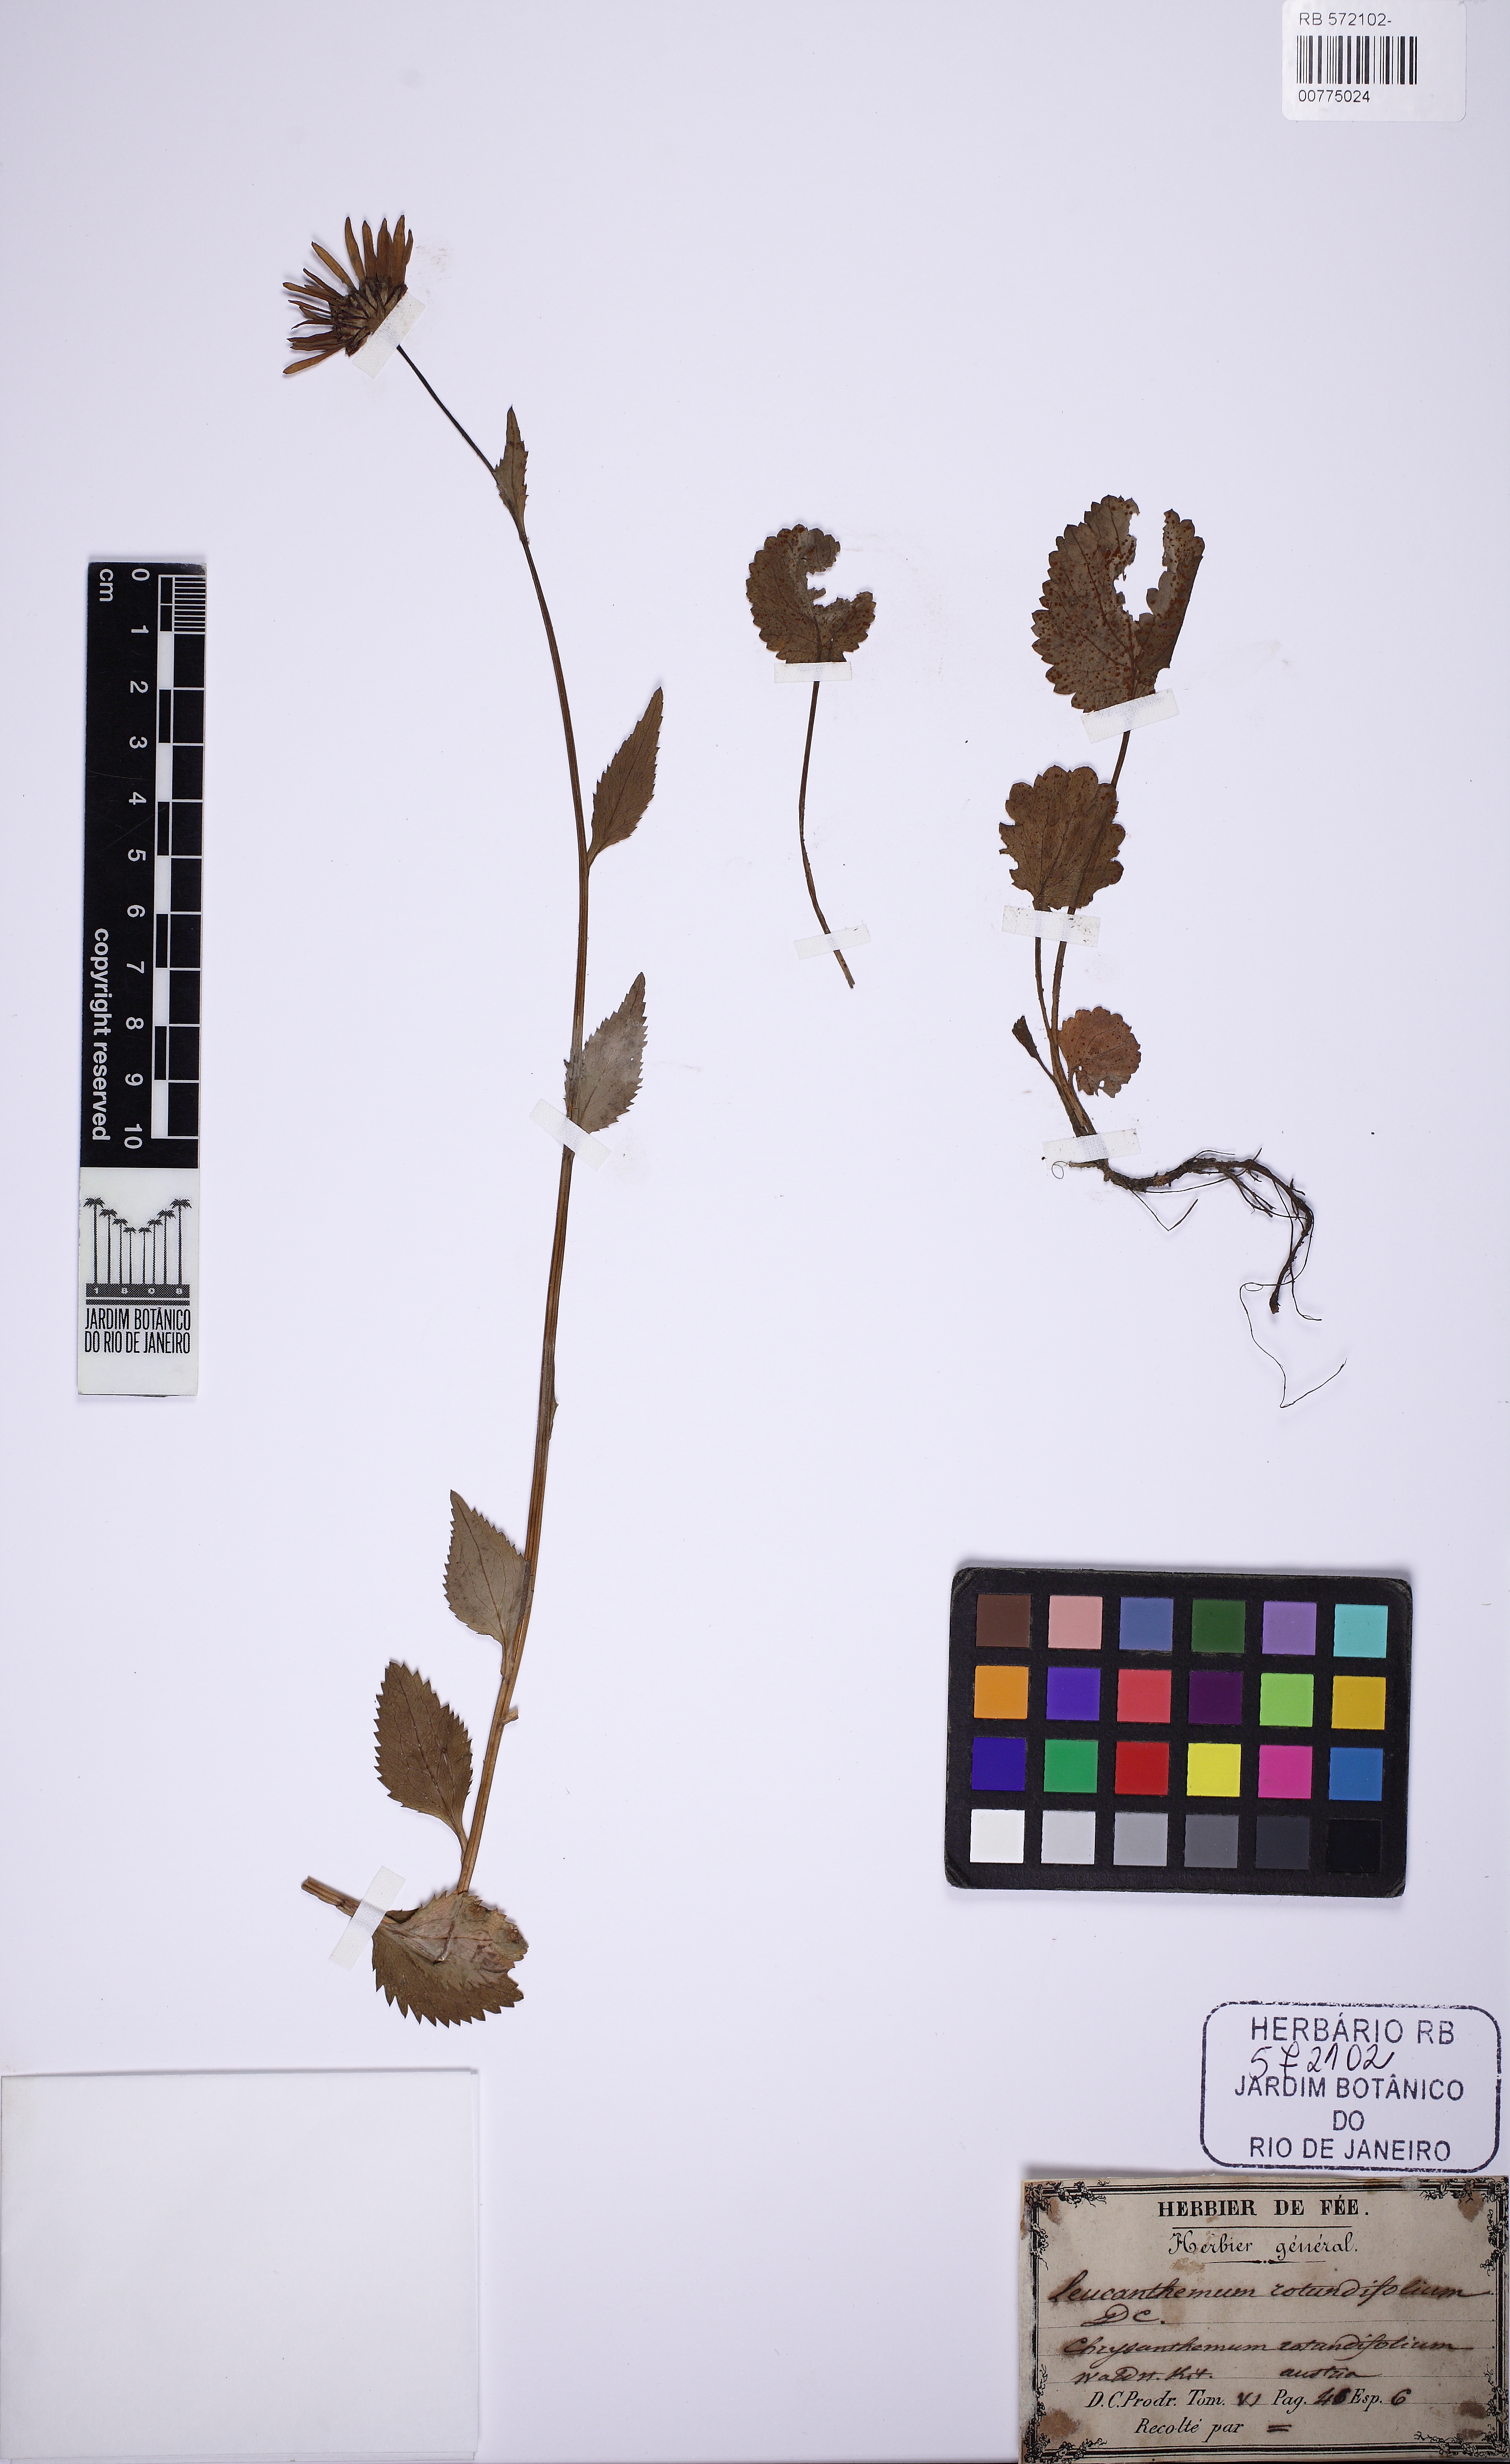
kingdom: Plantae
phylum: Tracheophyta
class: Magnoliopsida
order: Asterales
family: Asteraceae
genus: Leucanthemum
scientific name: Leucanthemum rotundifolium
